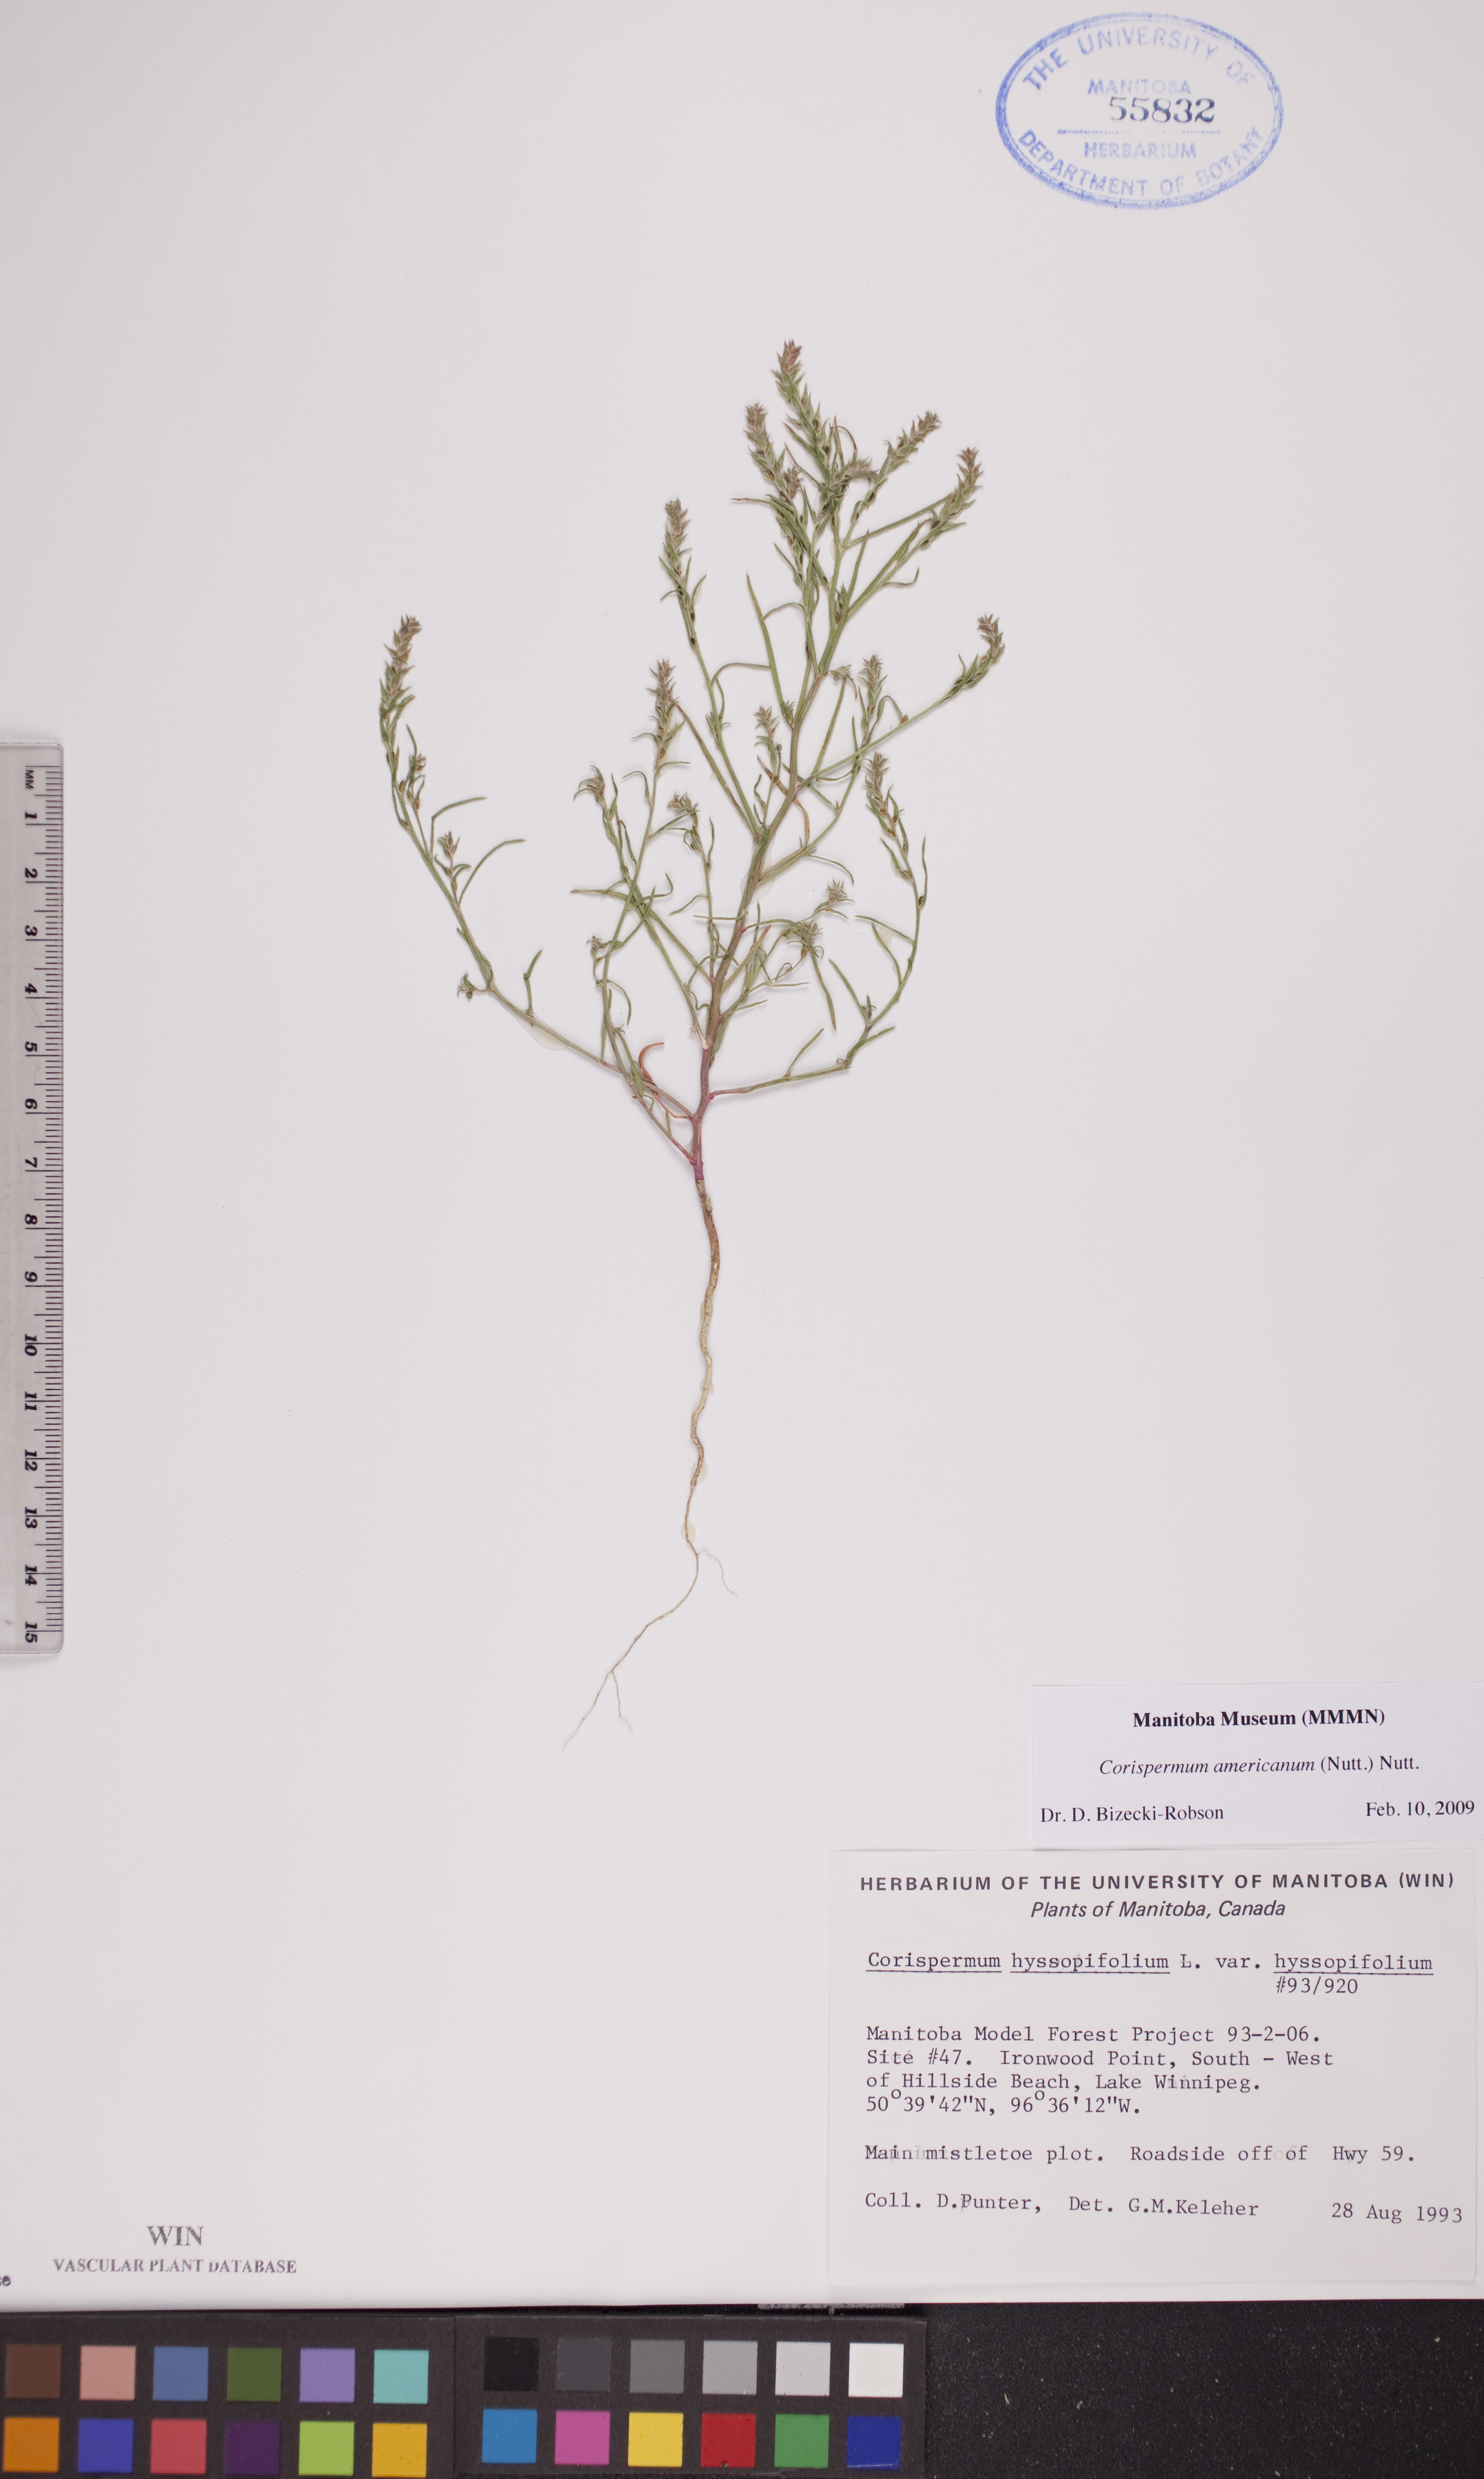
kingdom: Plantae
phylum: Tracheophyta
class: Magnoliopsida
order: Caryophyllales
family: Amaranthaceae
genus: Corispermum
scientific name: Corispermum americanum
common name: American bugseed
